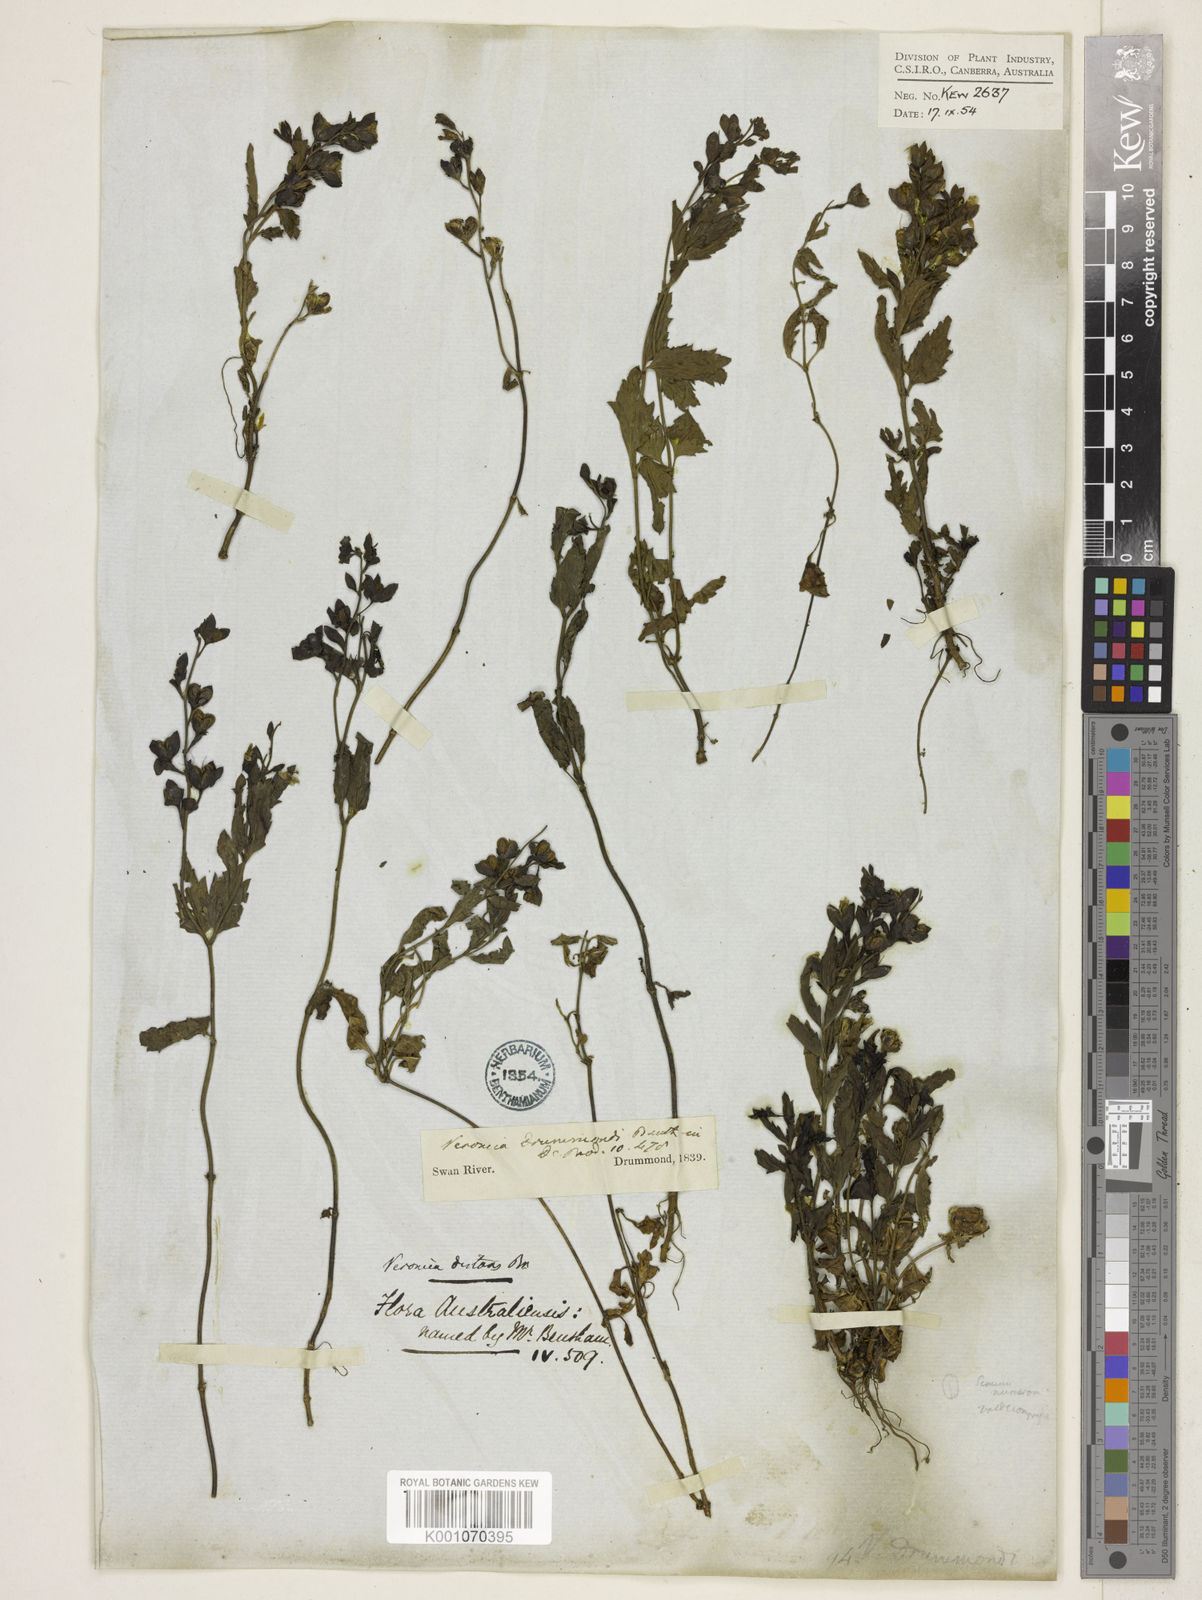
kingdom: Plantae
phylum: Tracheophyta
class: Magnoliopsida
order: Lamiales
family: Plantaginaceae
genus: Veronica
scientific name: Veronica distans
